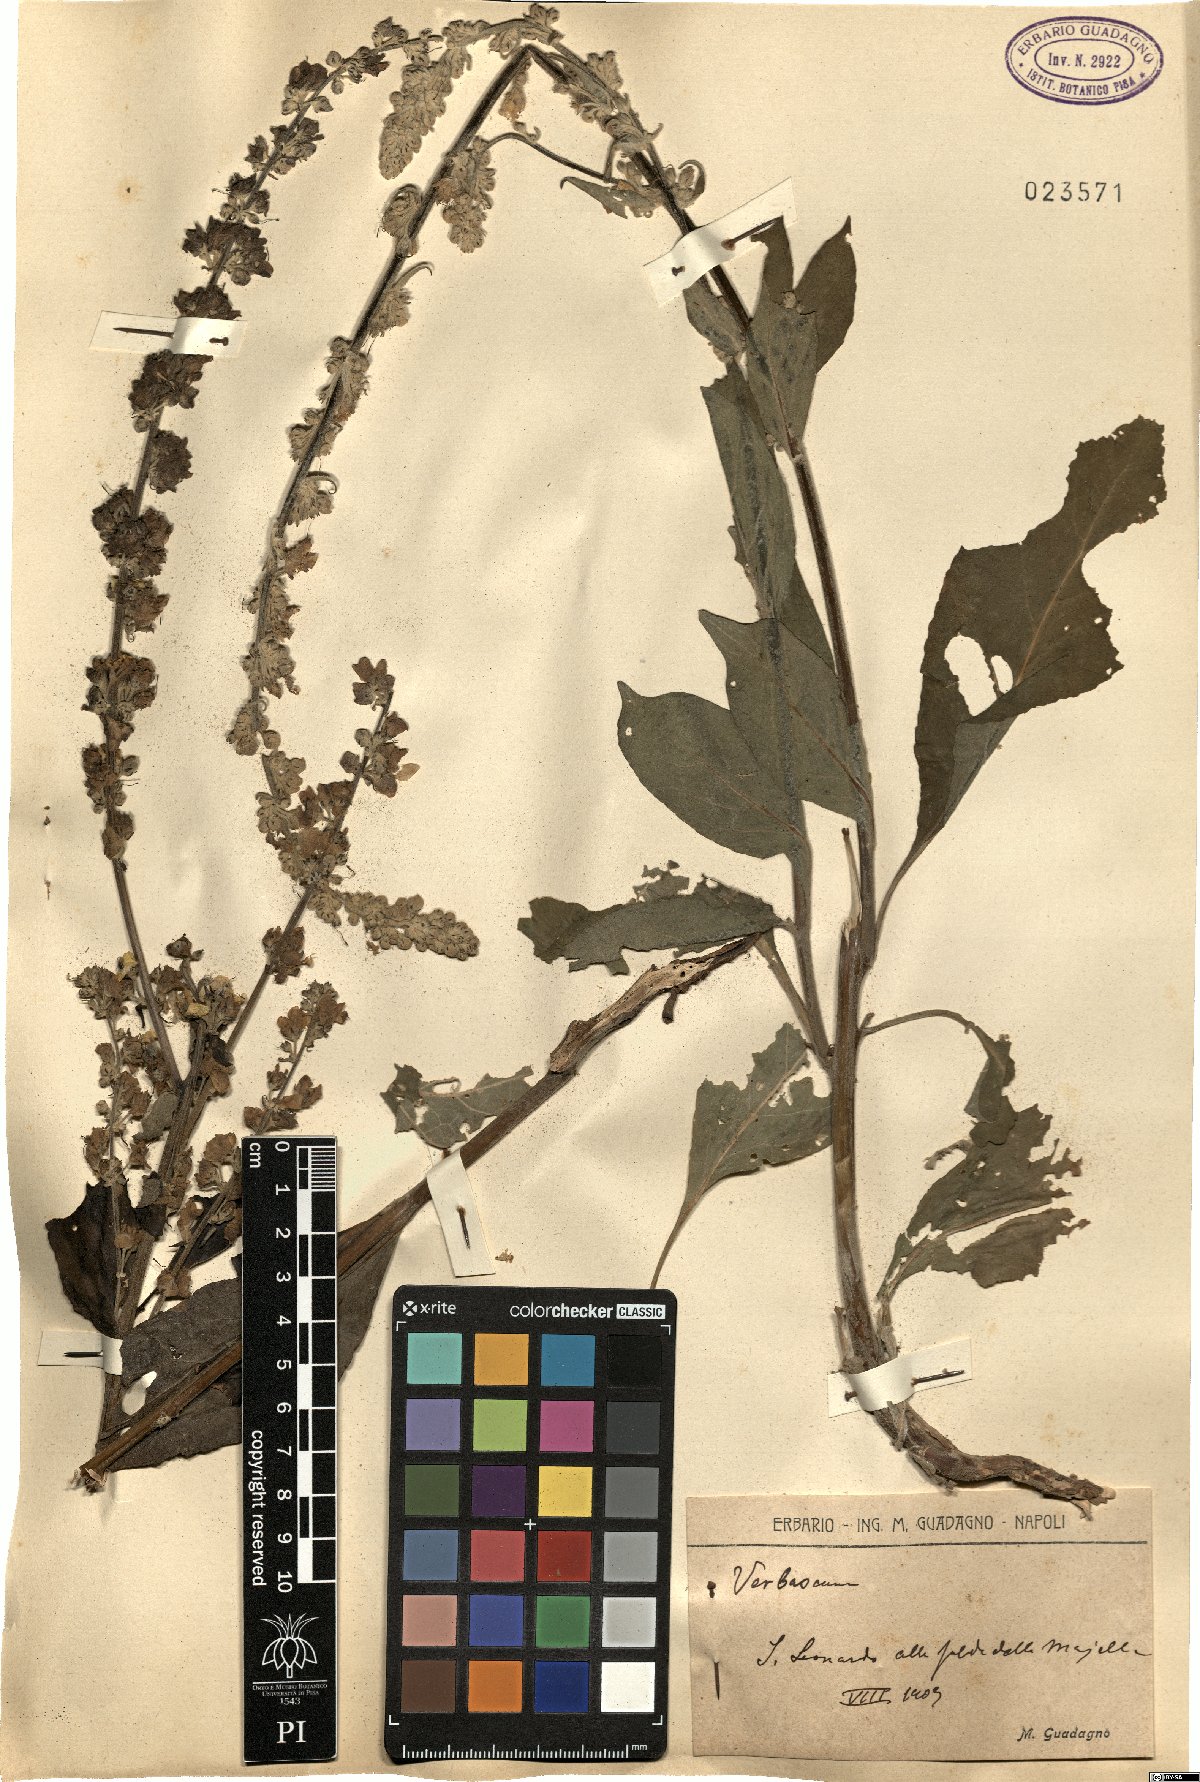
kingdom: Plantae
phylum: Tracheophyta
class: Magnoliopsida
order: Lamiales
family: Scrophulariaceae
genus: Verbascum
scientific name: Verbascum
